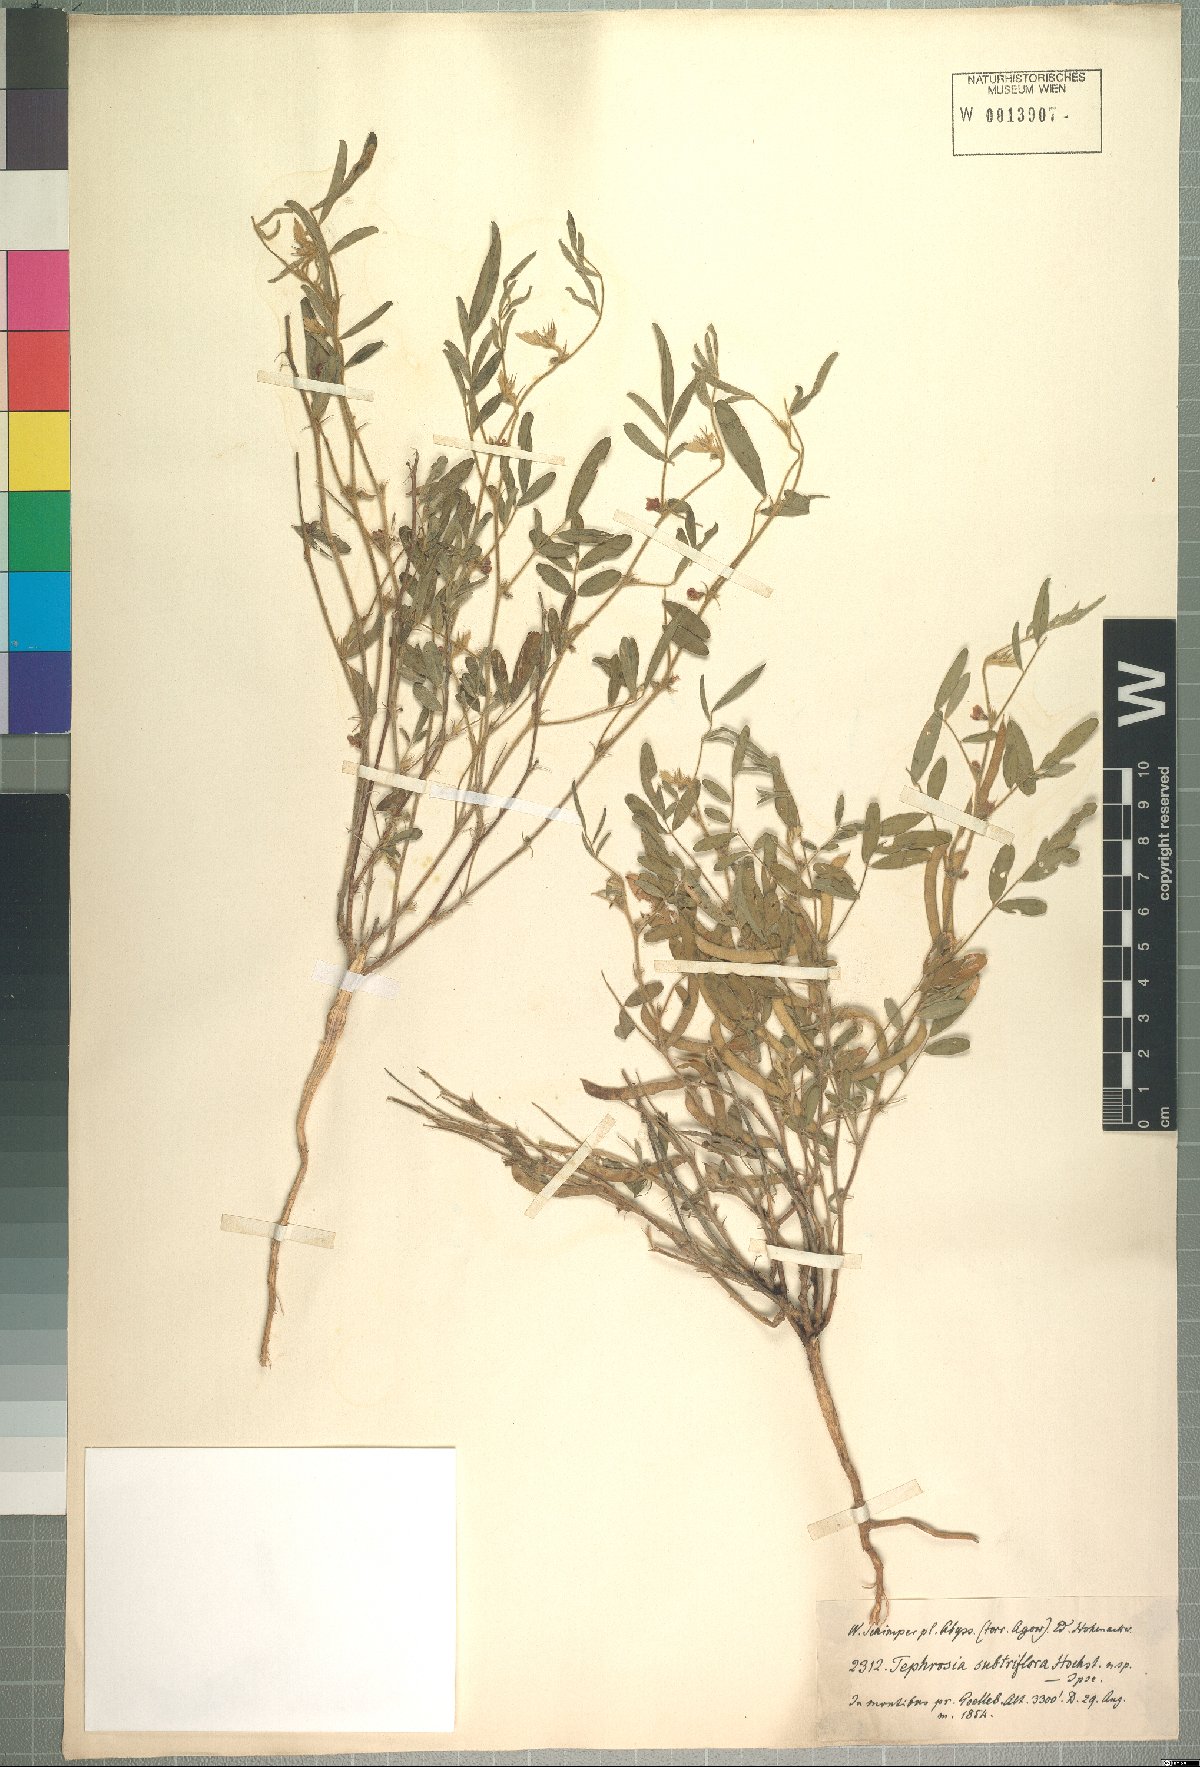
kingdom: Plantae
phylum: Tracheophyta
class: Magnoliopsida
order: Fabales
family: Fabaceae
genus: Tephrosia
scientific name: Tephrosia subtriflora
